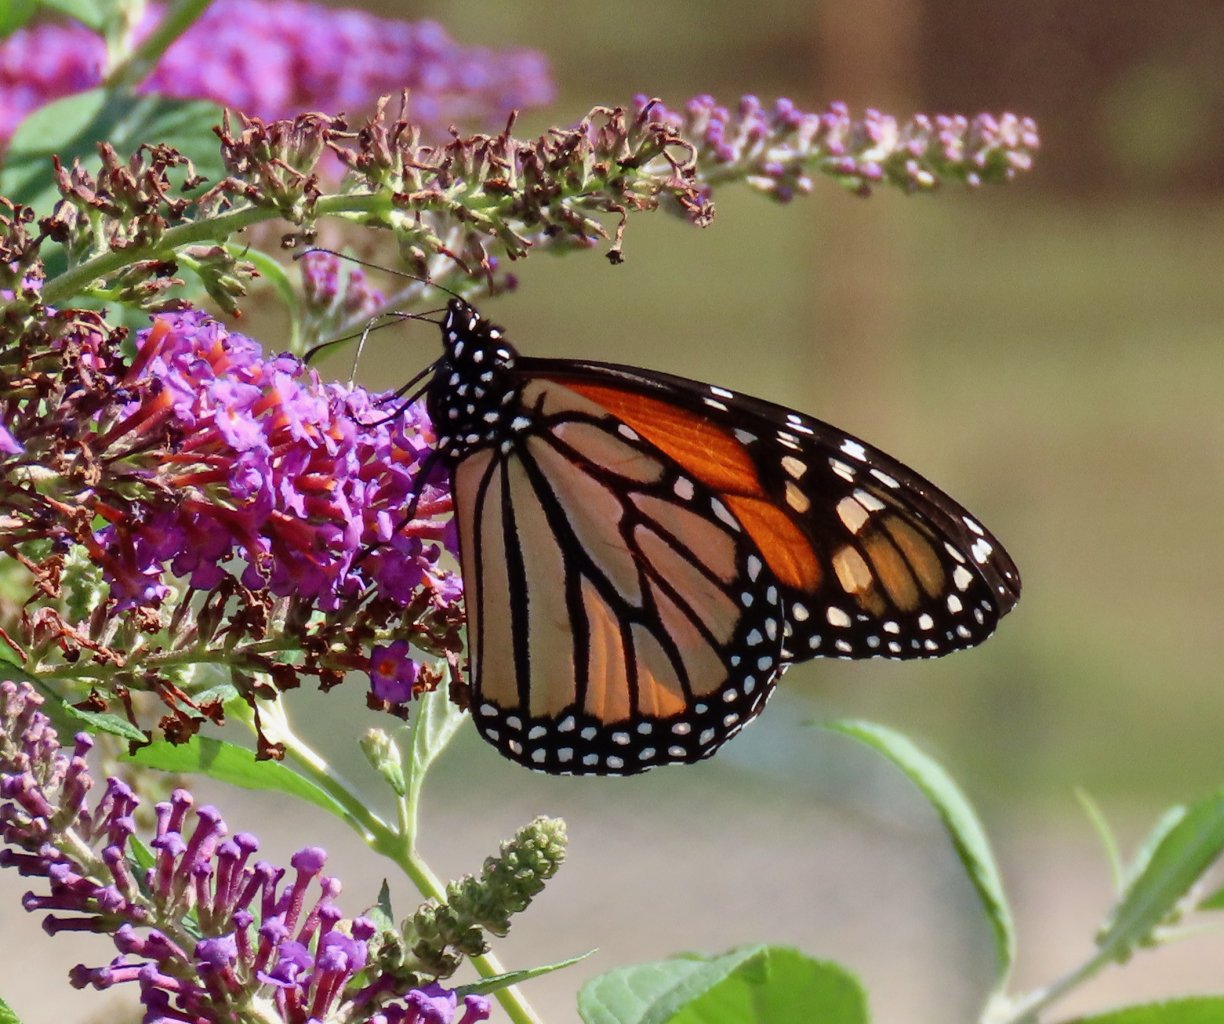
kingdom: Animalia
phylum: Arthropoda
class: Insecta
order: Lepidoptera
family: Nymphalidae
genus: Danaus
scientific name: Danaus plexippus
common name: Monarch
